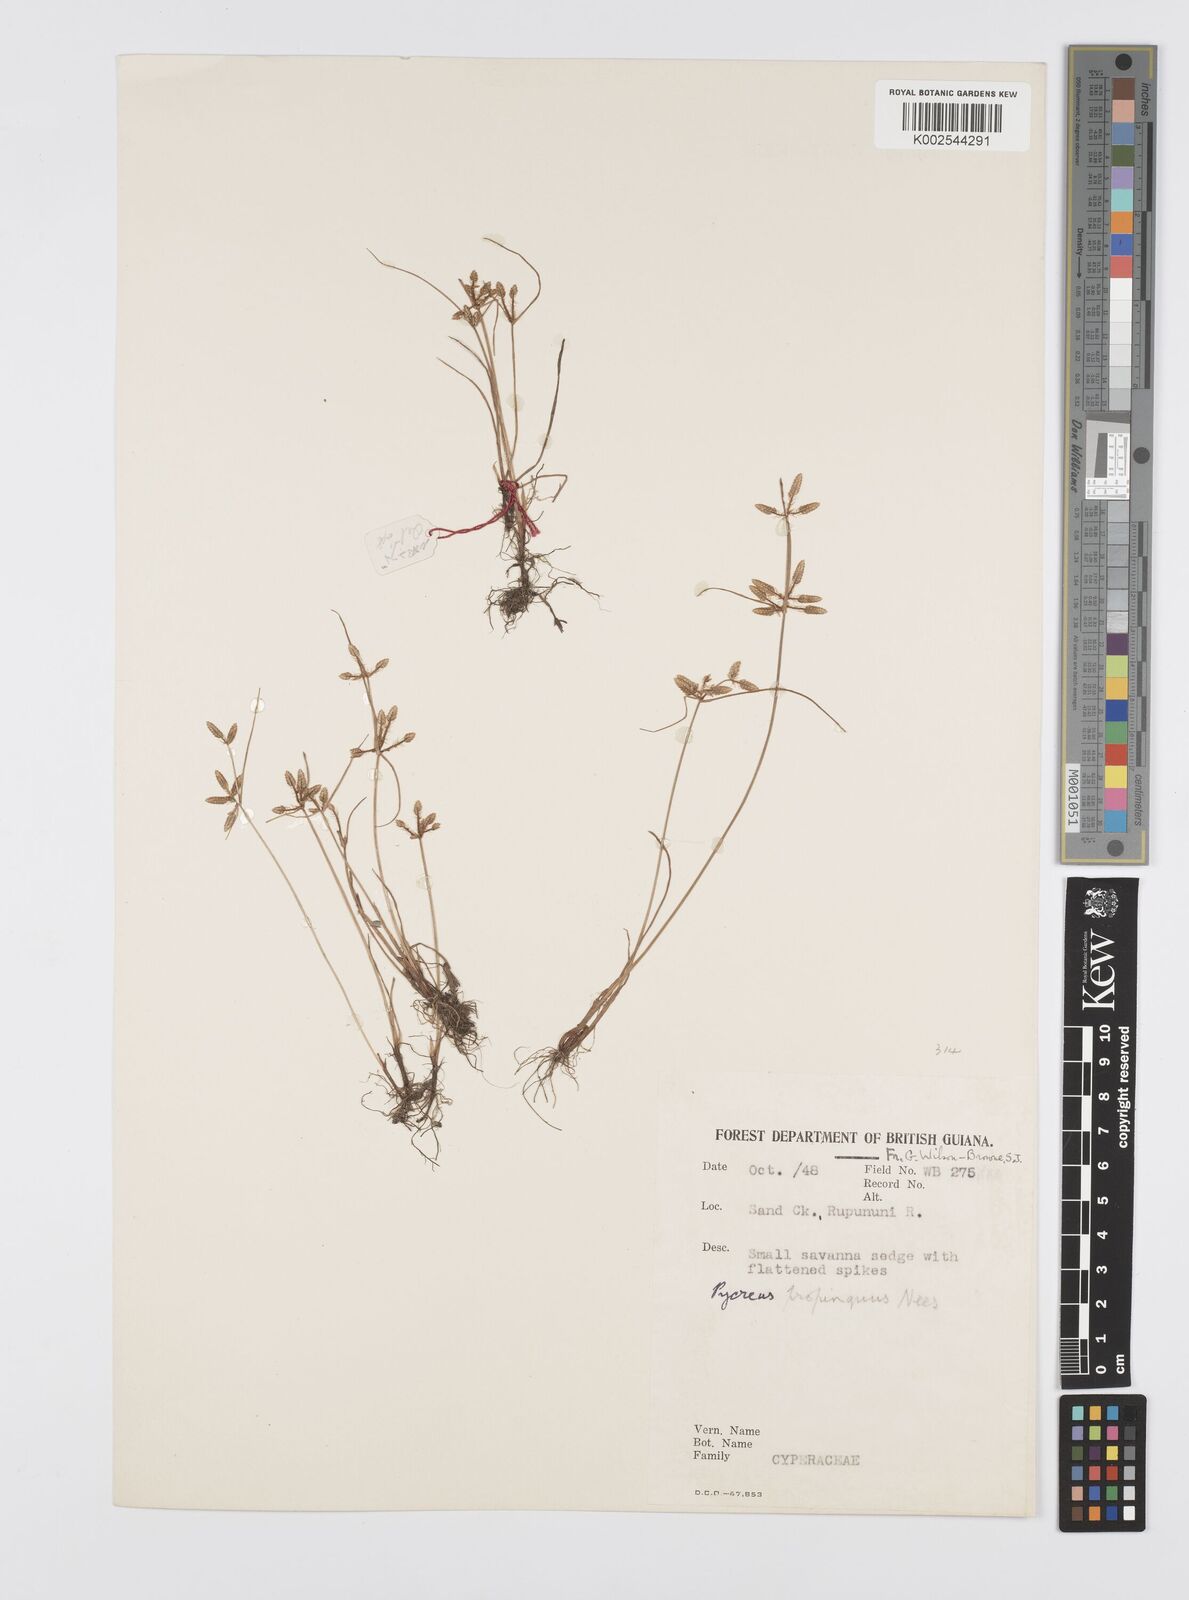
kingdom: Plantae
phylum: Tracheophyta
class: Liliopsida
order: Poales
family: Cyperaceae
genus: Cyperus
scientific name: Cyperus
